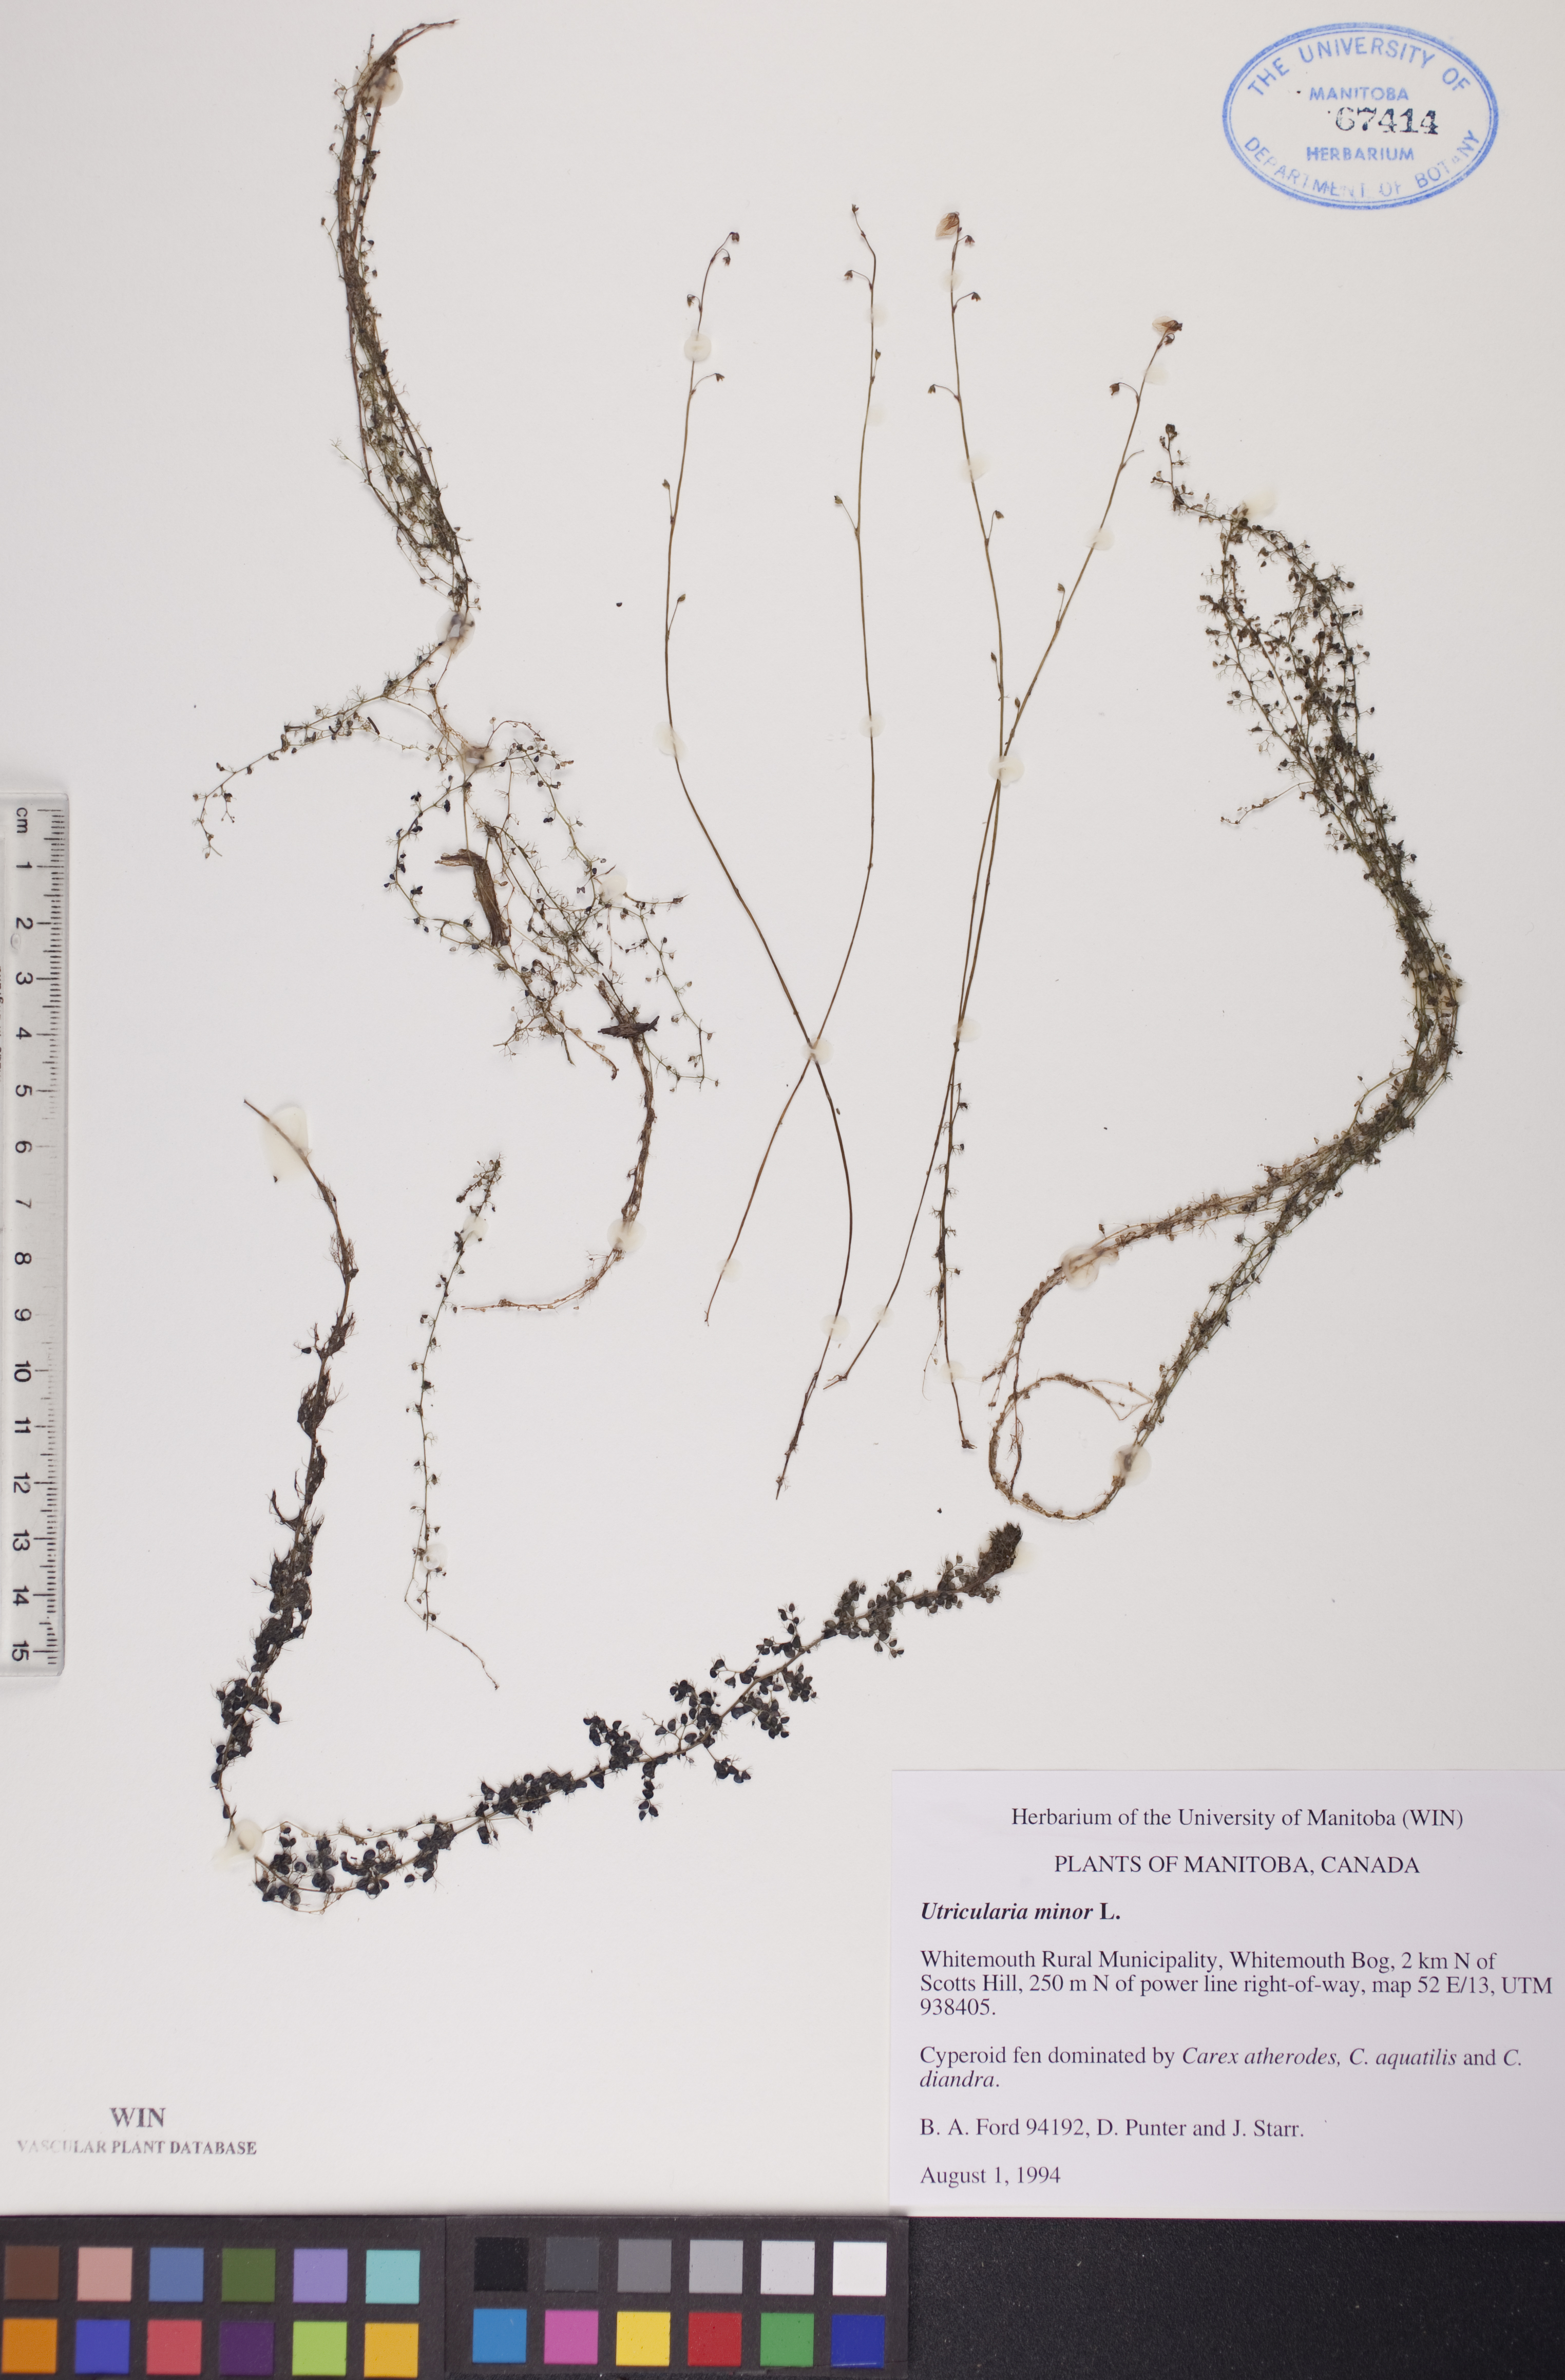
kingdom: Plantae
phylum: Tracheophyta
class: Magnoliopsida
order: Lamiales
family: Lentibulariaceae
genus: Utricularia
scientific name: Utricularia minor
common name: Lesser bladderwort
